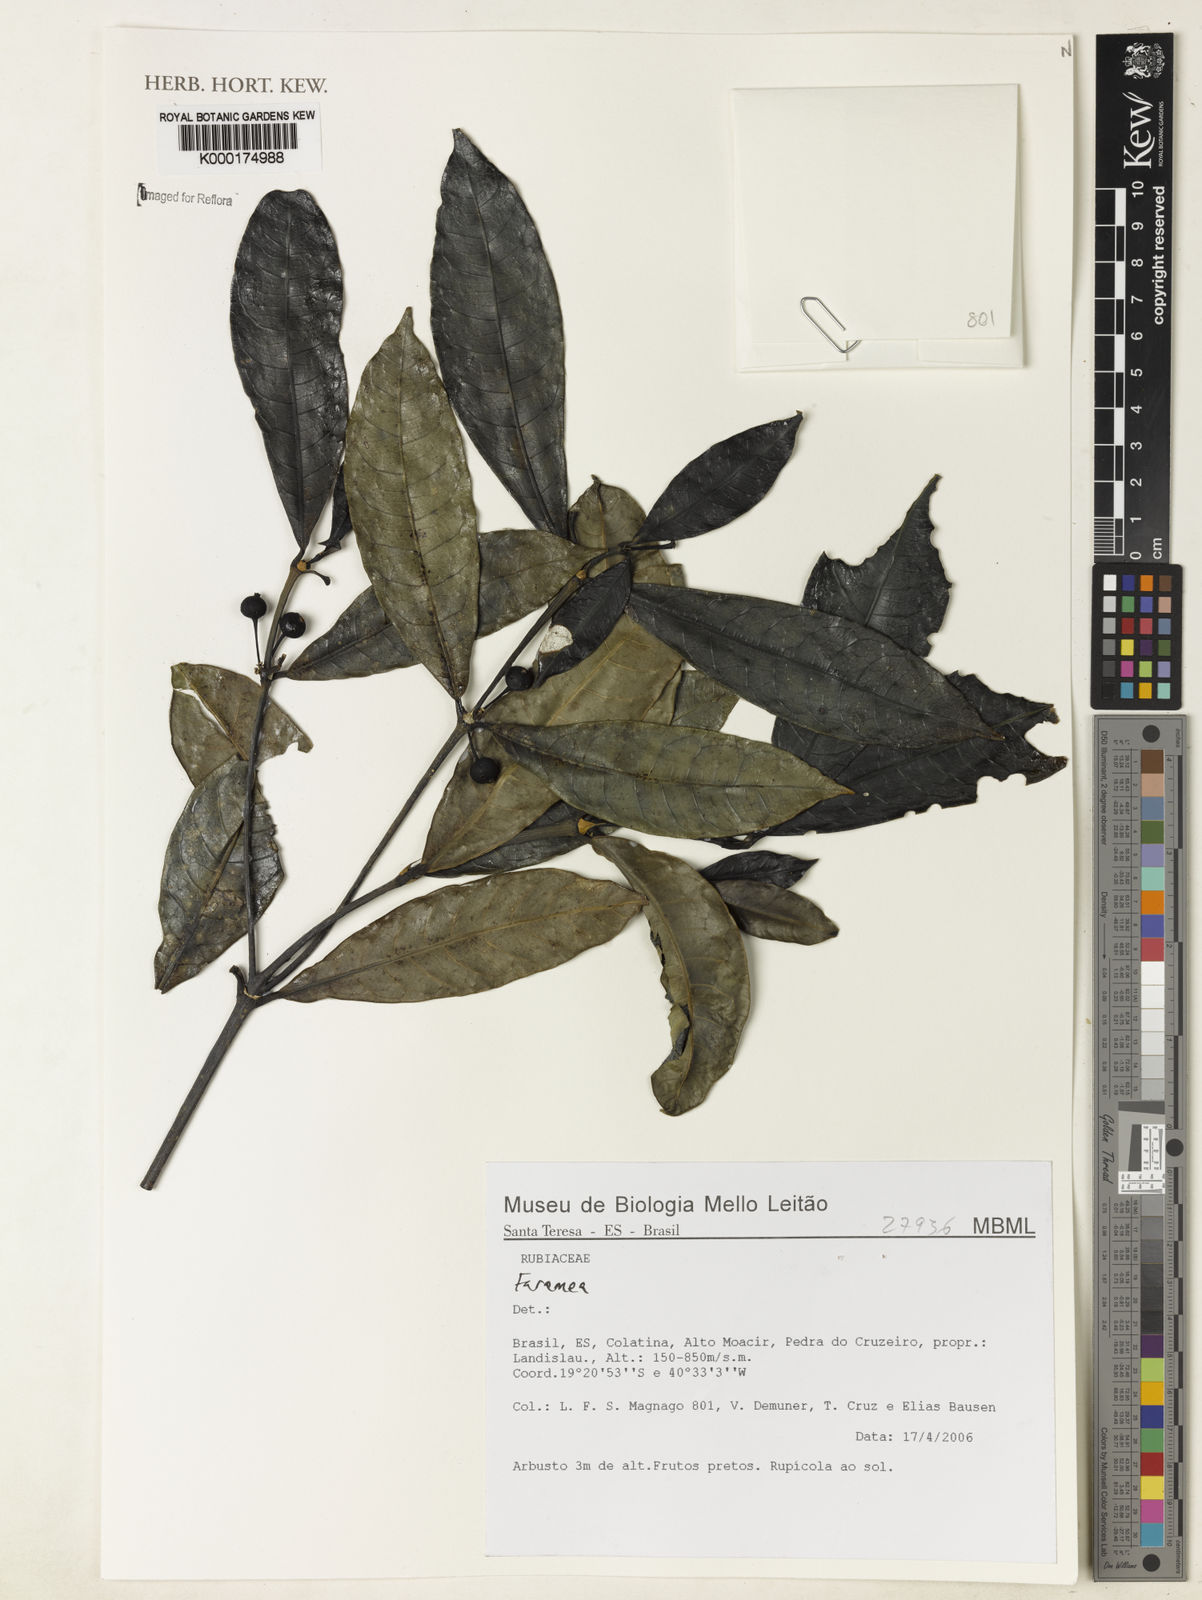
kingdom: Plantae
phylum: Tracheophyta
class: Magnoliopsida
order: Gentianales
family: Rubiaceae
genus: Faramea
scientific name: Faramea
